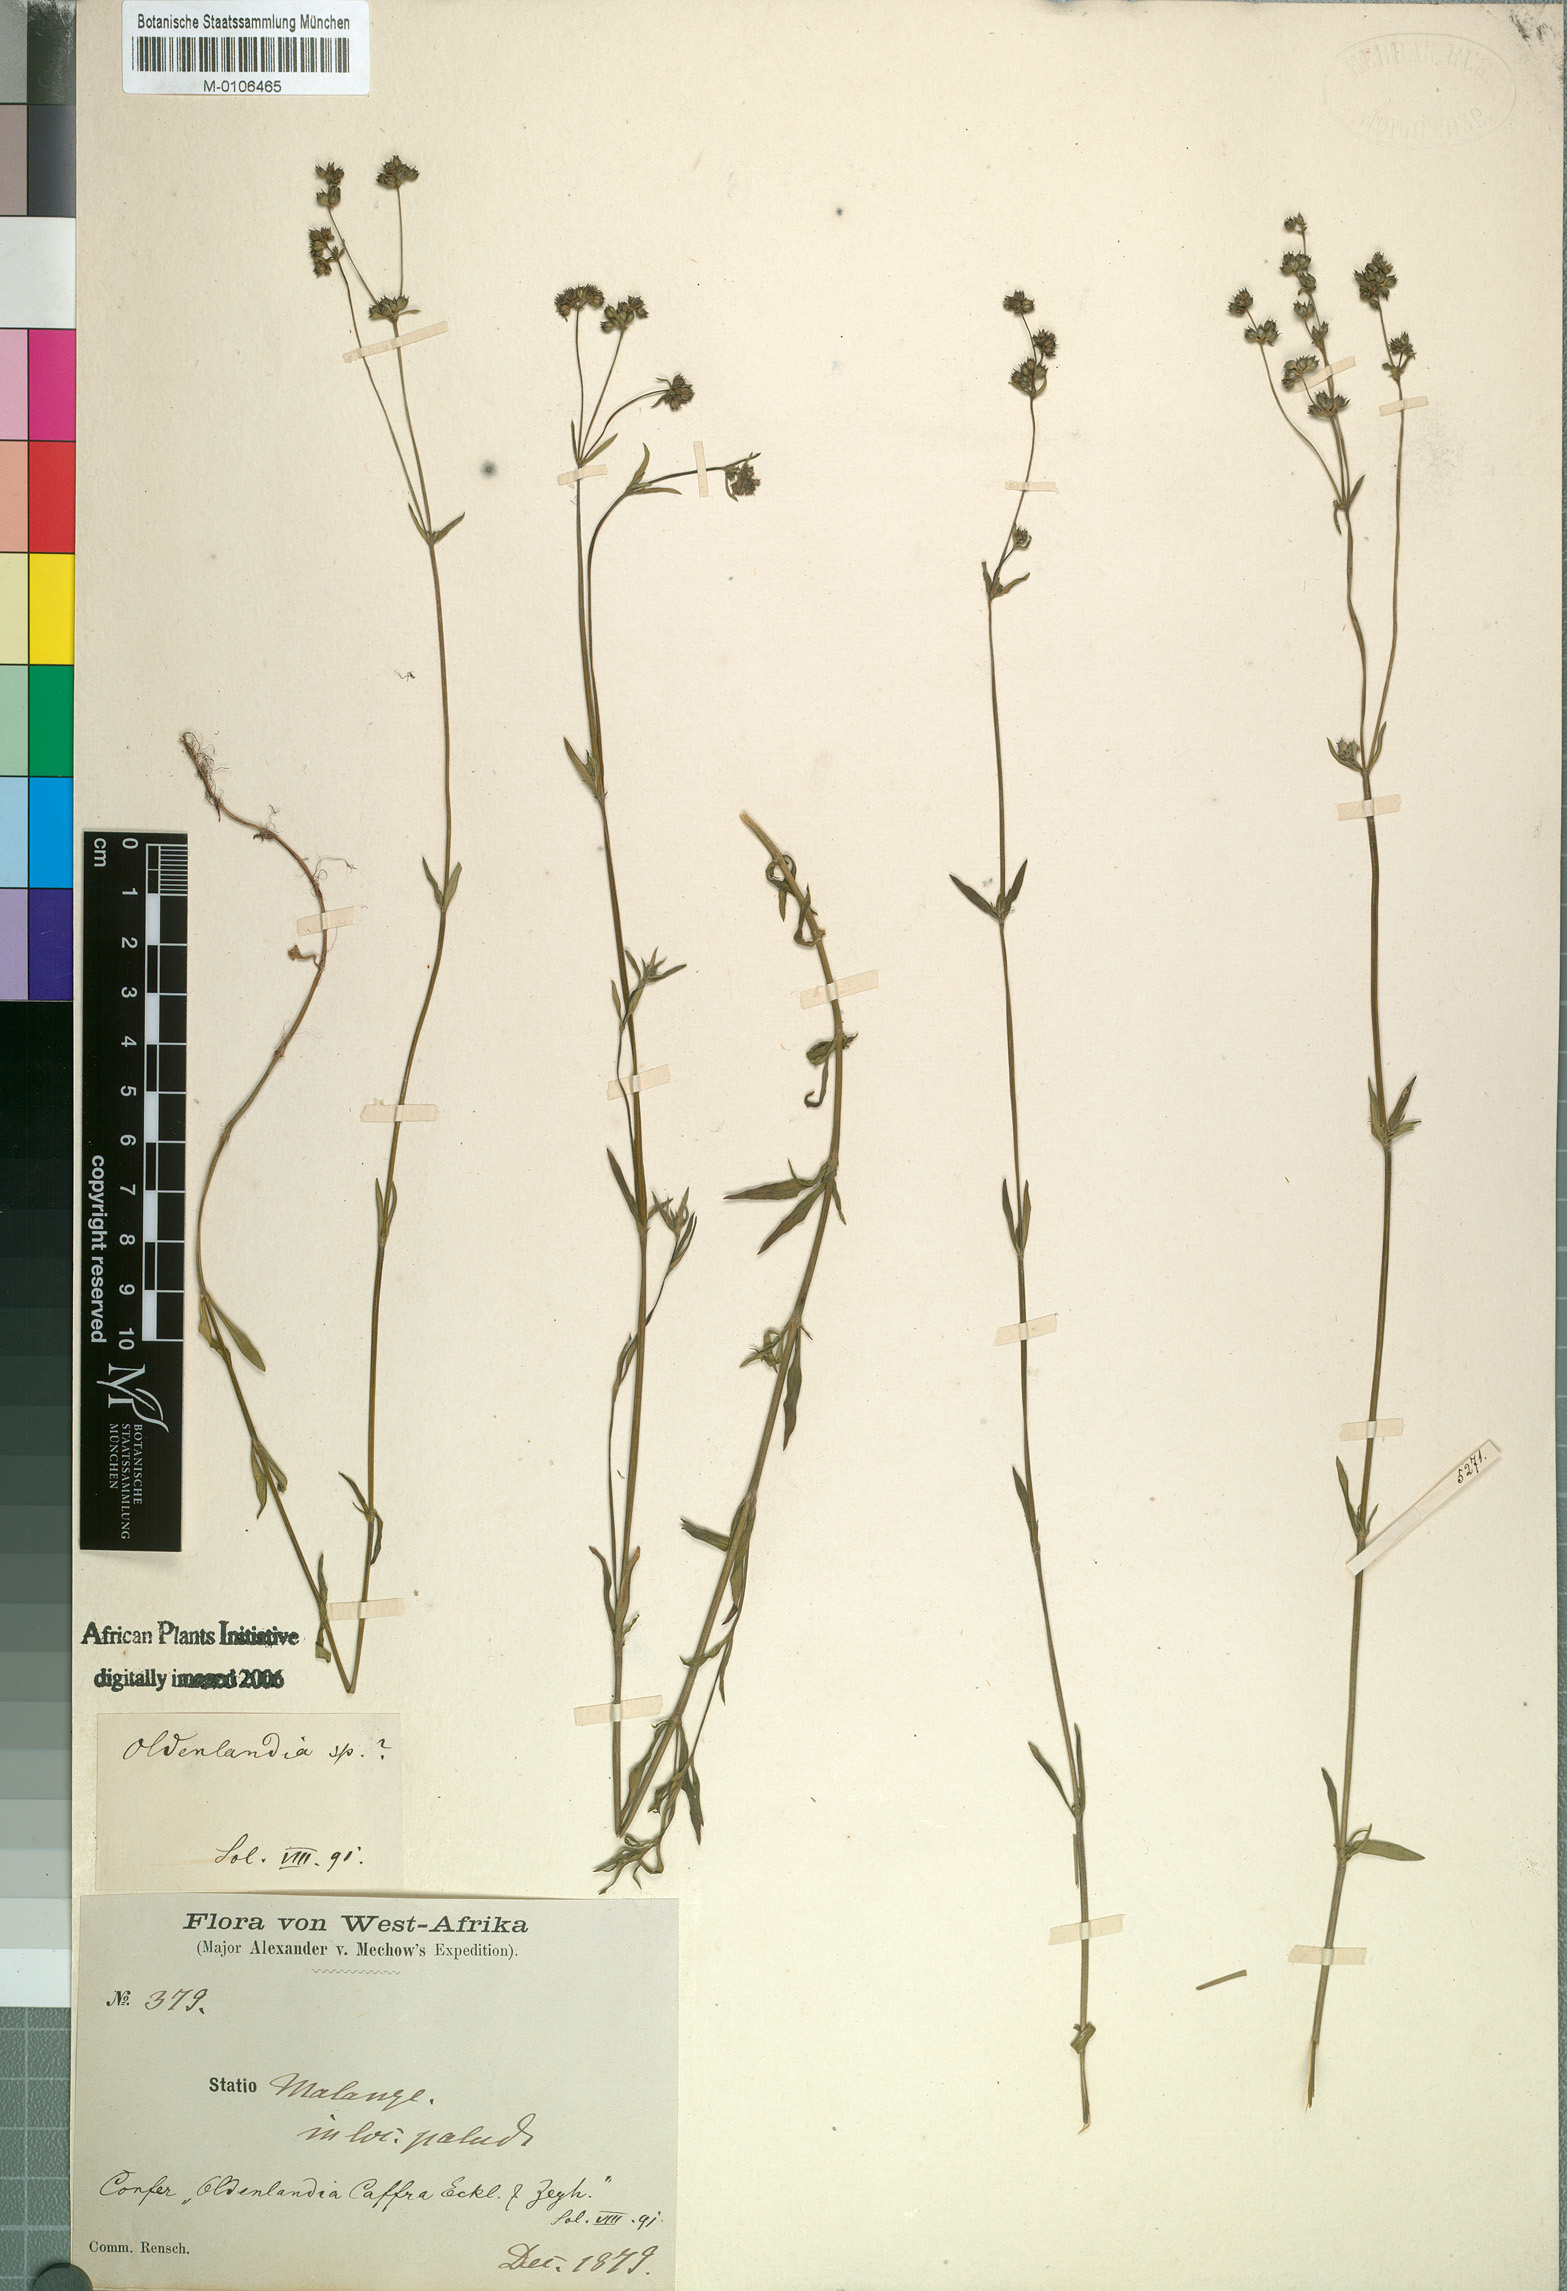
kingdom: Plantae
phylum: Tracheophyta
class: Magnoliopsida
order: Gentianales
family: Rubiaceae
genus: Edrastima
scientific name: Edrastima angolensis
